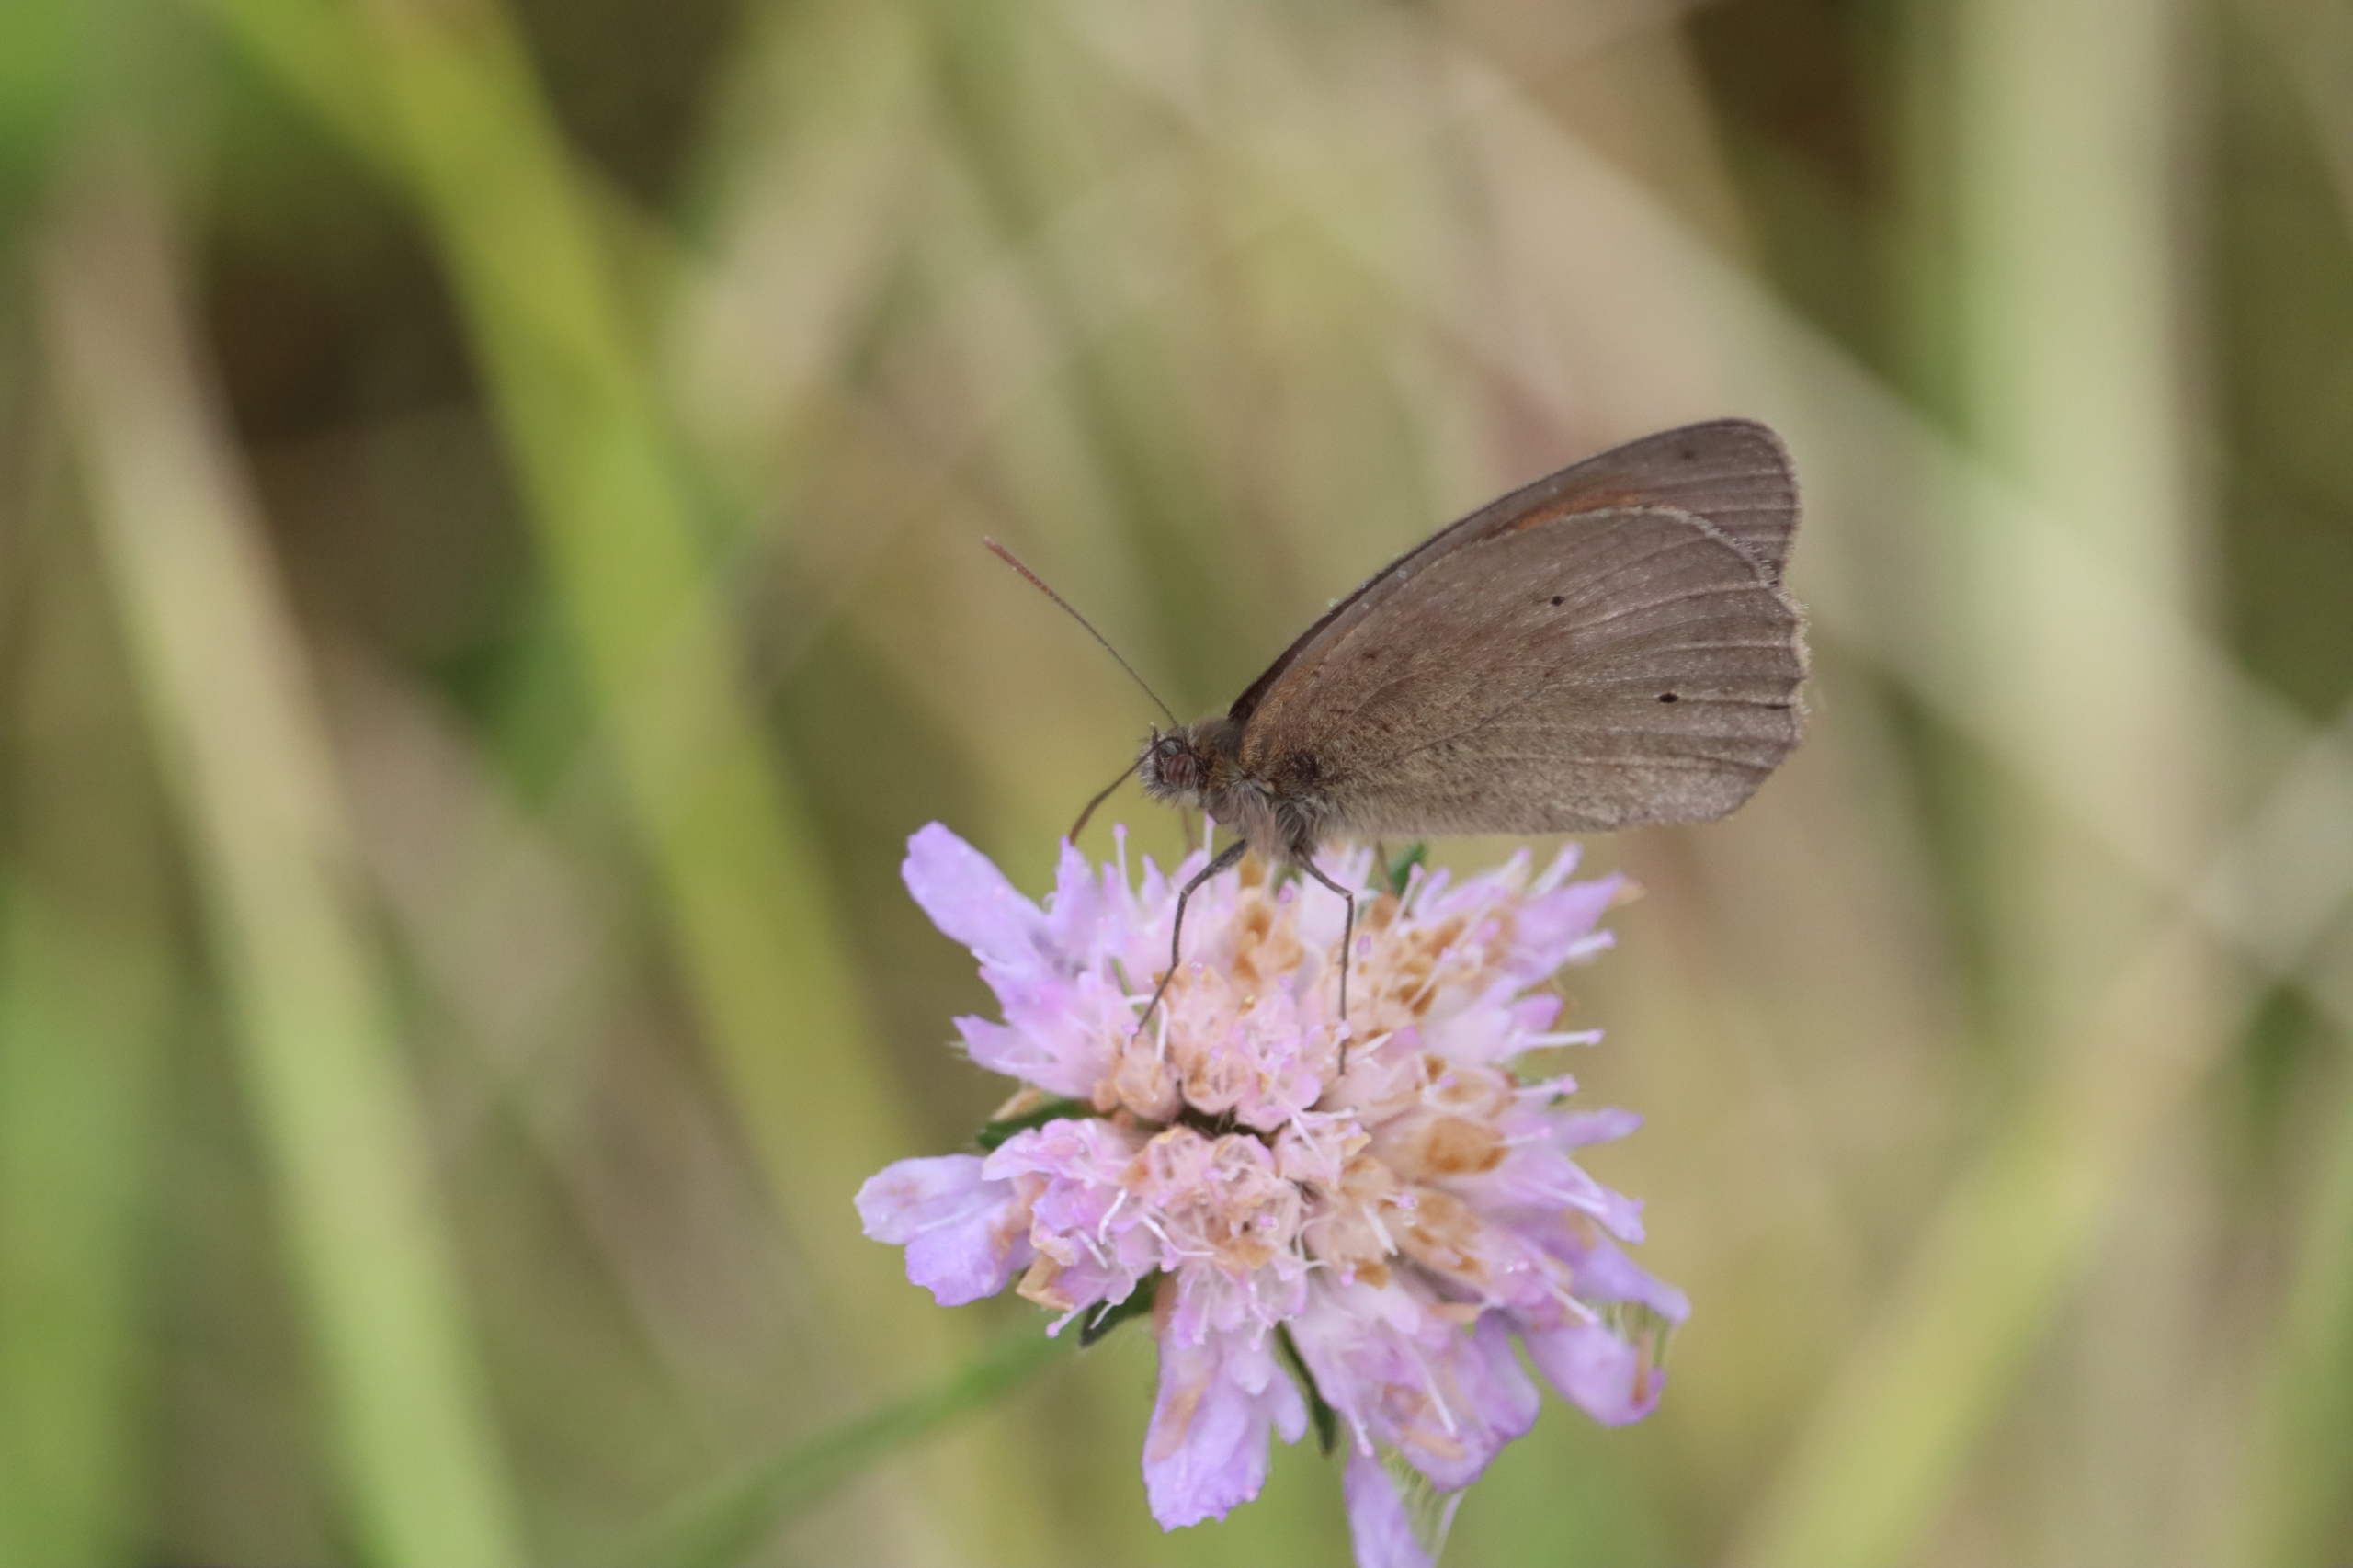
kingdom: Plantae
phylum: Tracheophyta
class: Magnoliopsida
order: Dipsacales
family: Caprifoliaceae
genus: Knautia
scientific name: Knautia arvensis
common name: Blåhat
